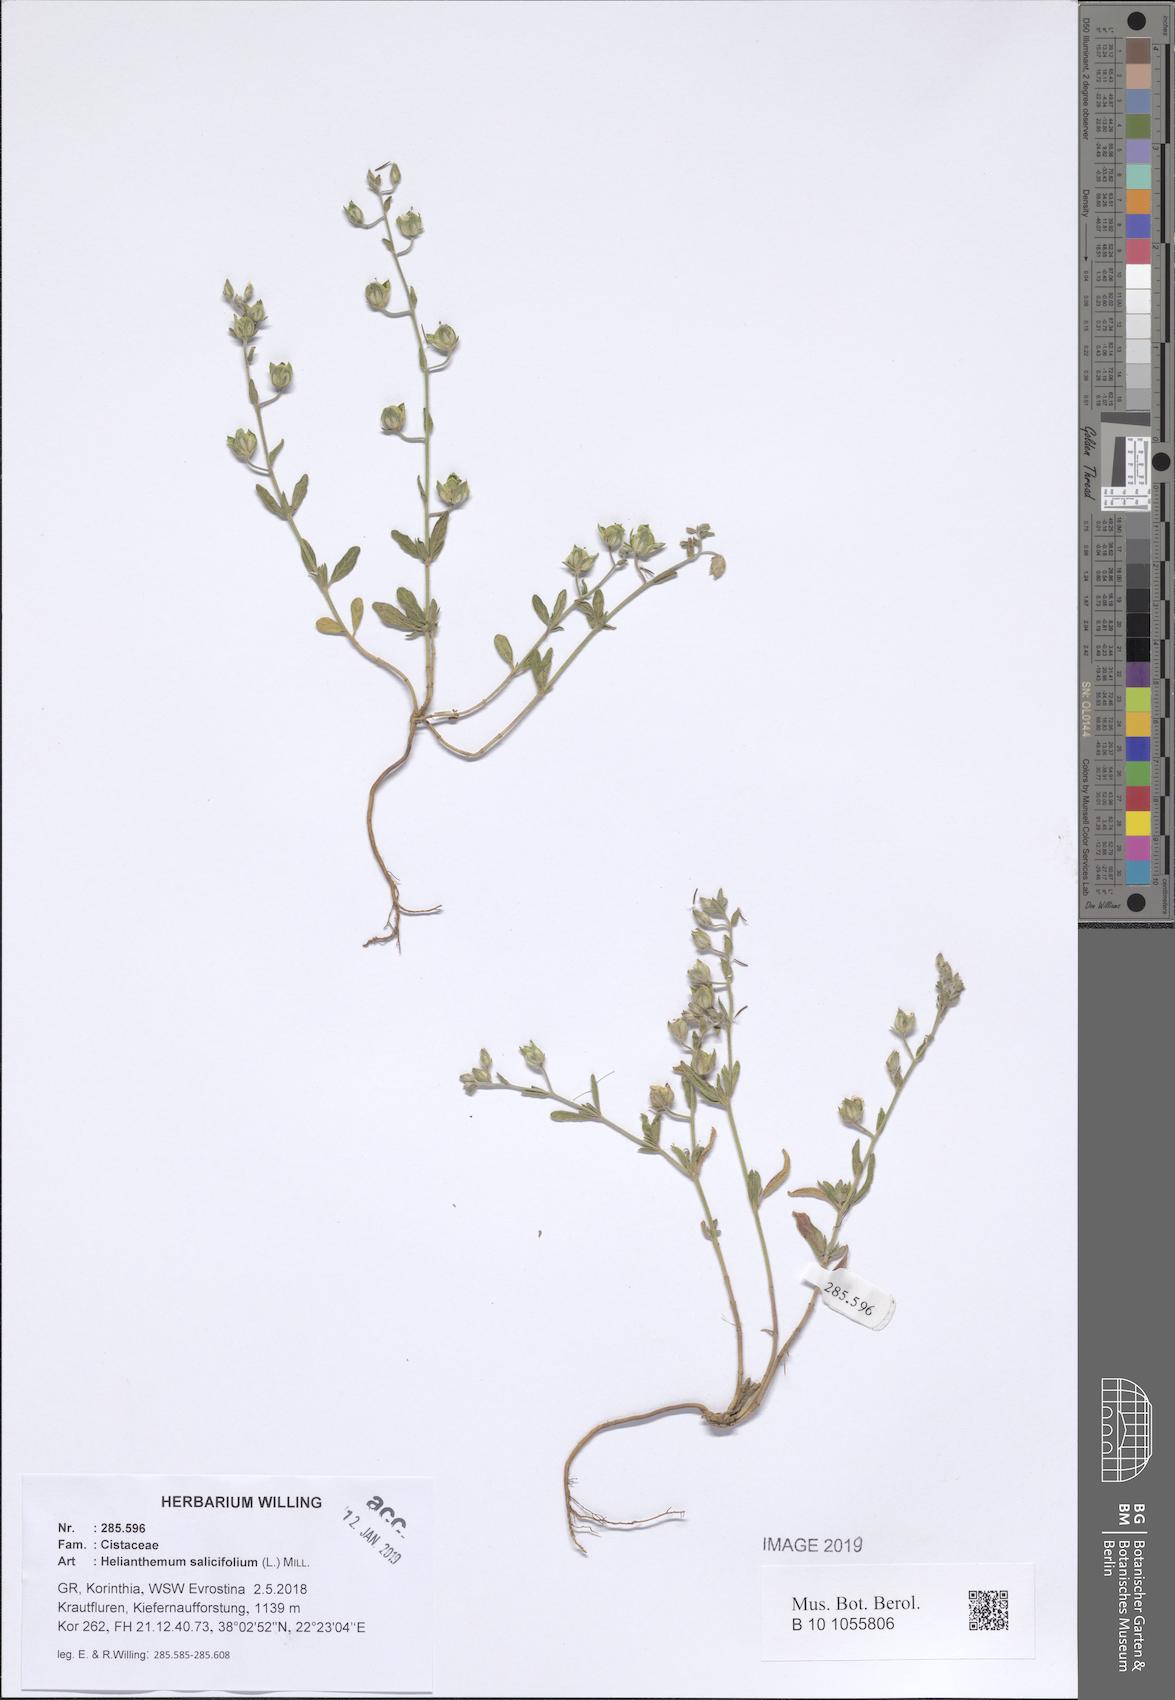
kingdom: Plantae
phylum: Tracheophyta
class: Magnoliopsida
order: Malvales
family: Cistaceae
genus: Helianthemum
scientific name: Helianthemum salicifolium
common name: Willowleaf frostweed
